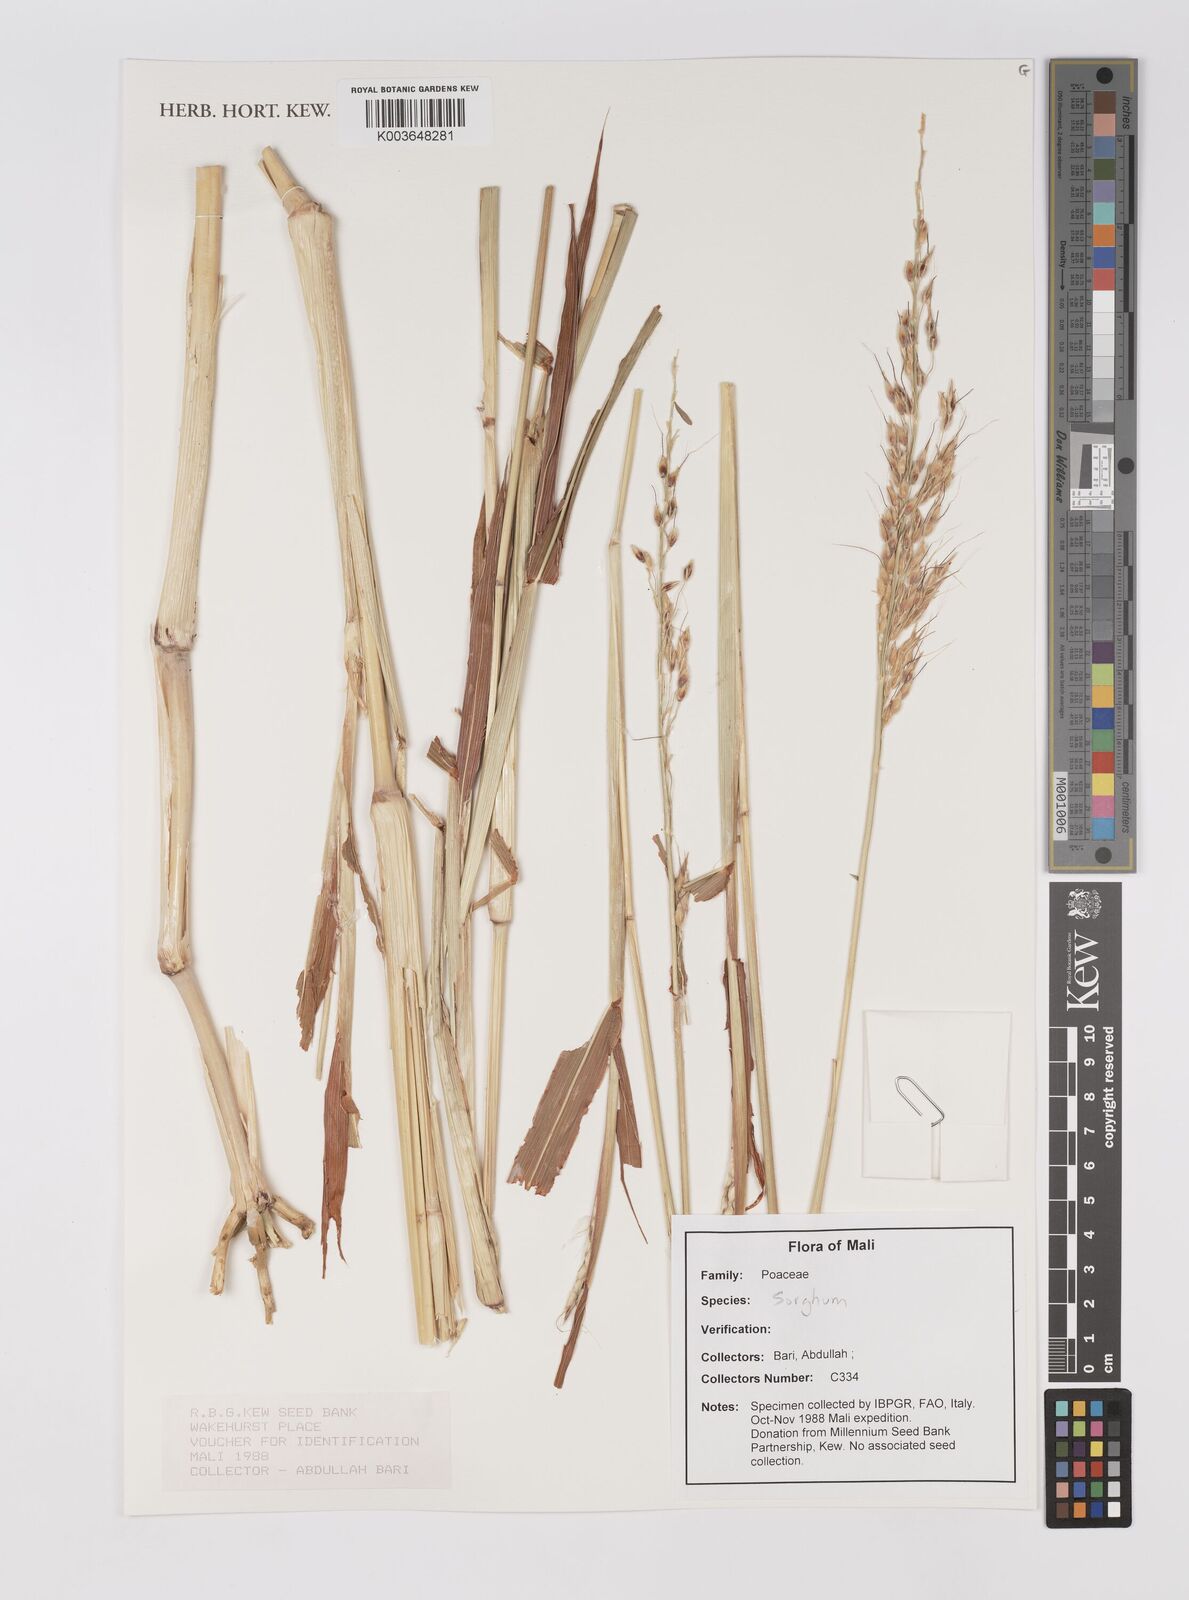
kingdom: Plantae
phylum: Tracheophyta
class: Liliopsida
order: Poales
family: Poaceae
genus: Sorghum
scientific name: Sorghum
